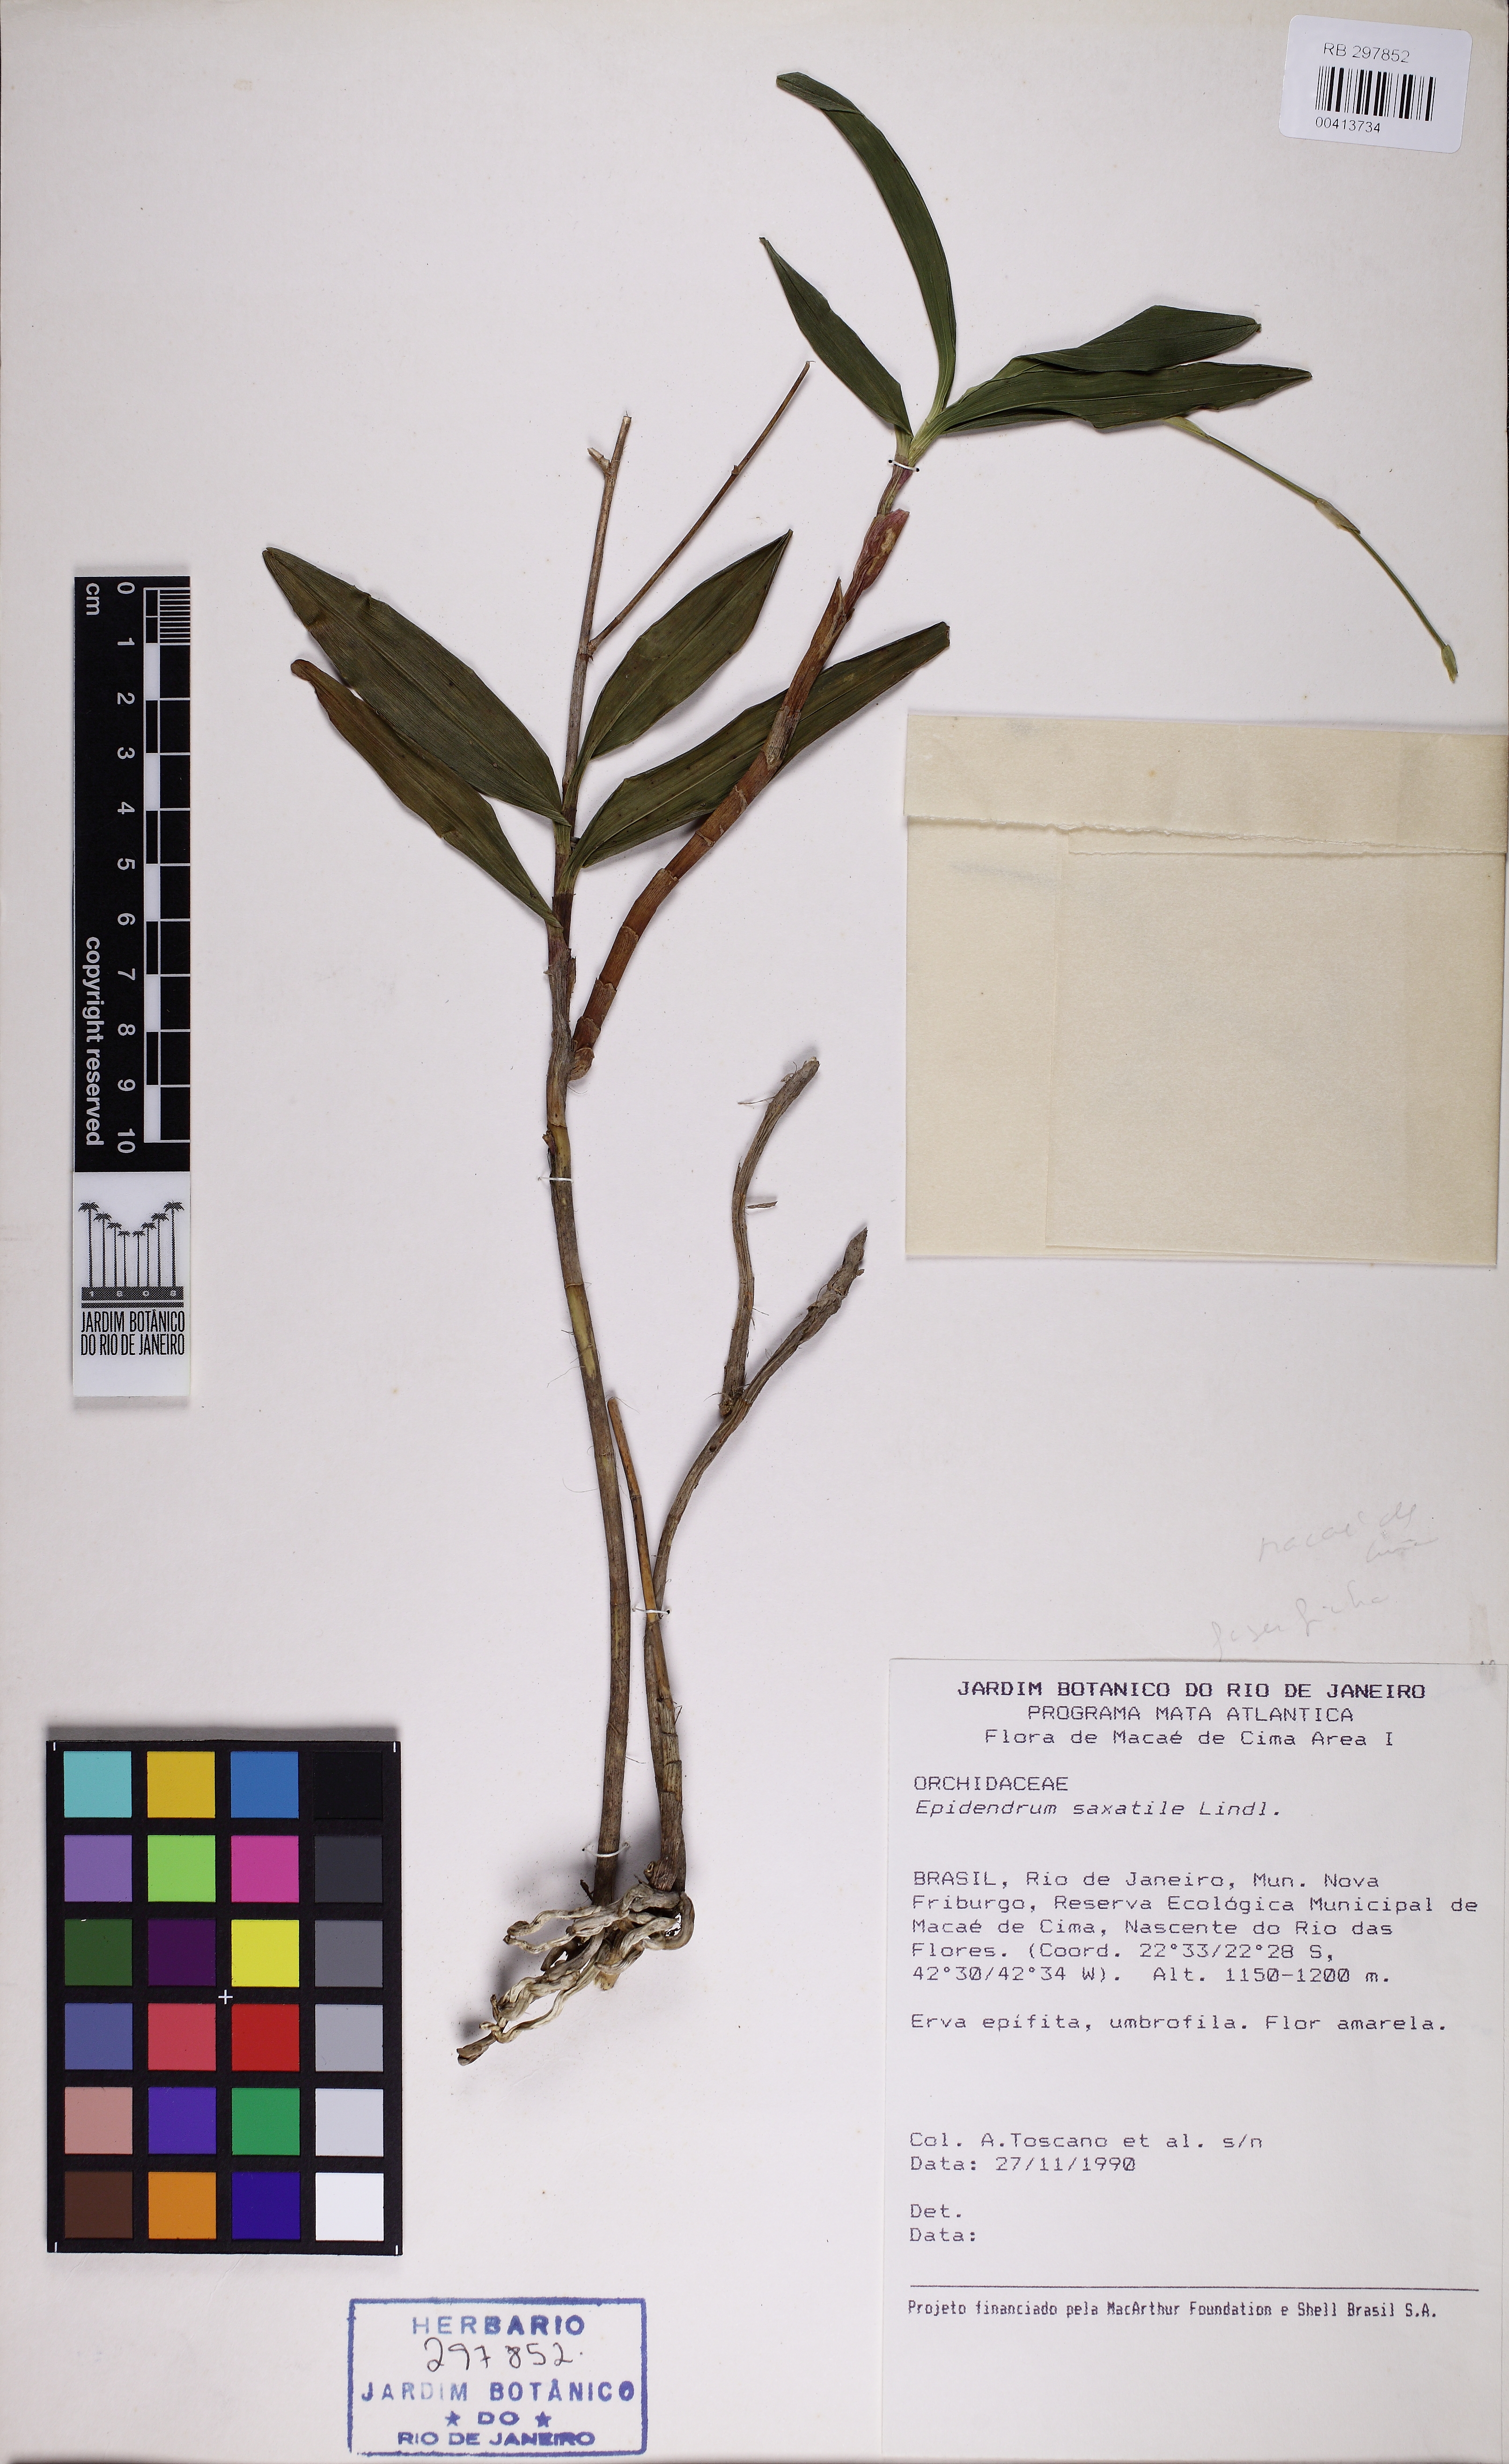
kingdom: Plantae
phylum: Tracheophyta
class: Liliopsida
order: Asparagales
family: Orchidaceae
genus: Epidendrum
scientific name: Epidendrum saxatile
